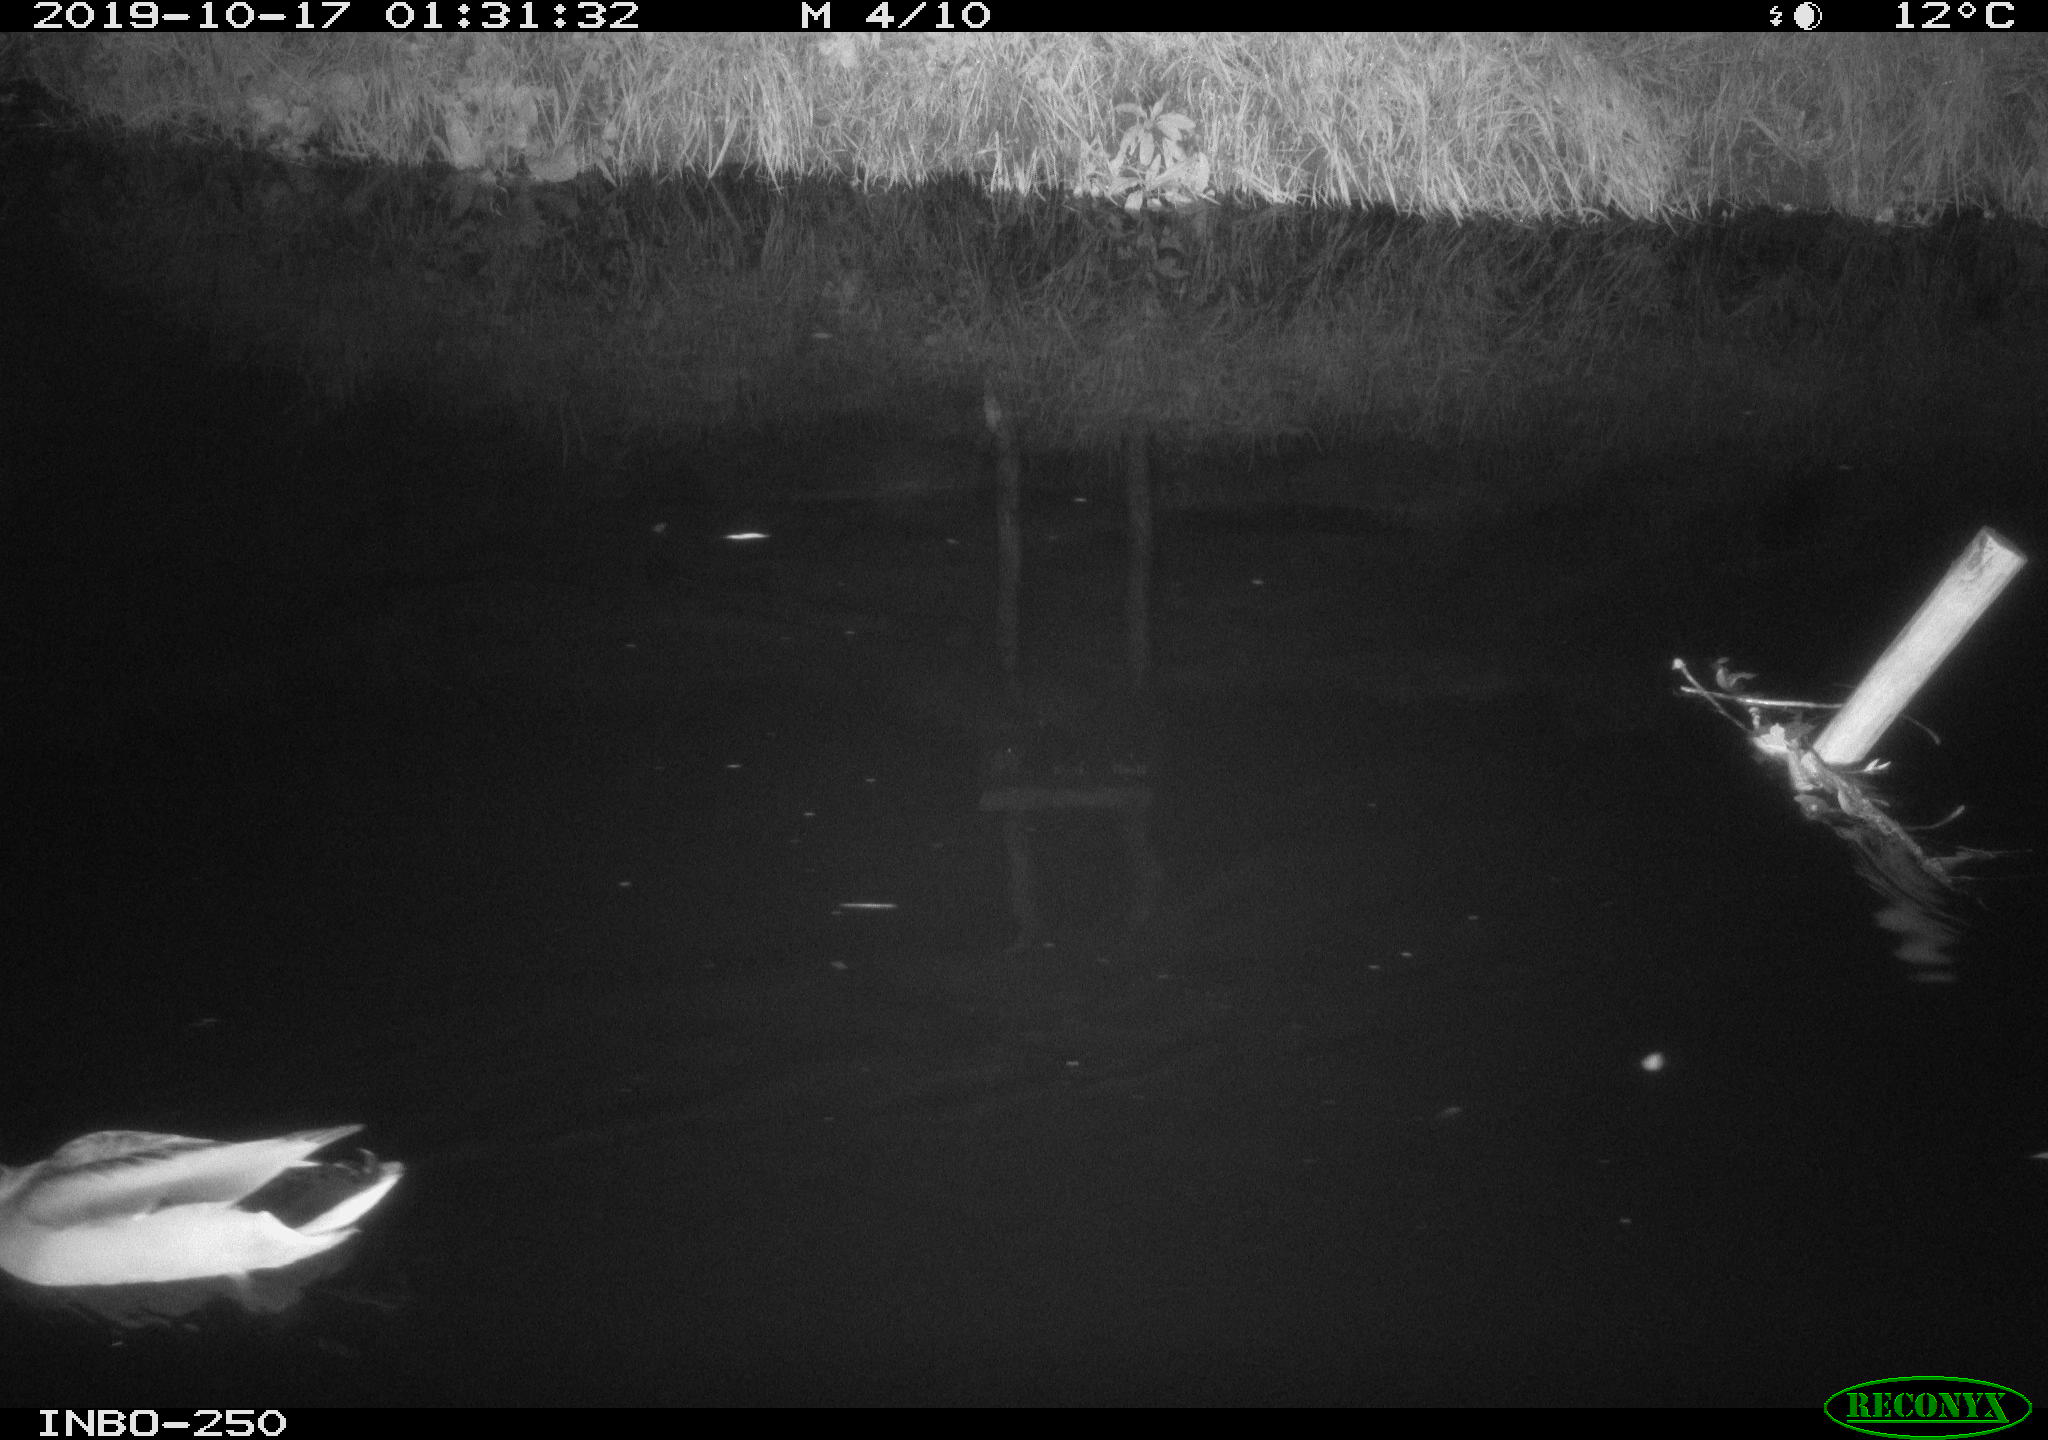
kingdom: Animalia
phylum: Chordata
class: Aves
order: Anseriformes
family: Anatidae
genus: Anas
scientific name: Anas platyrhynchos
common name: Mallard
